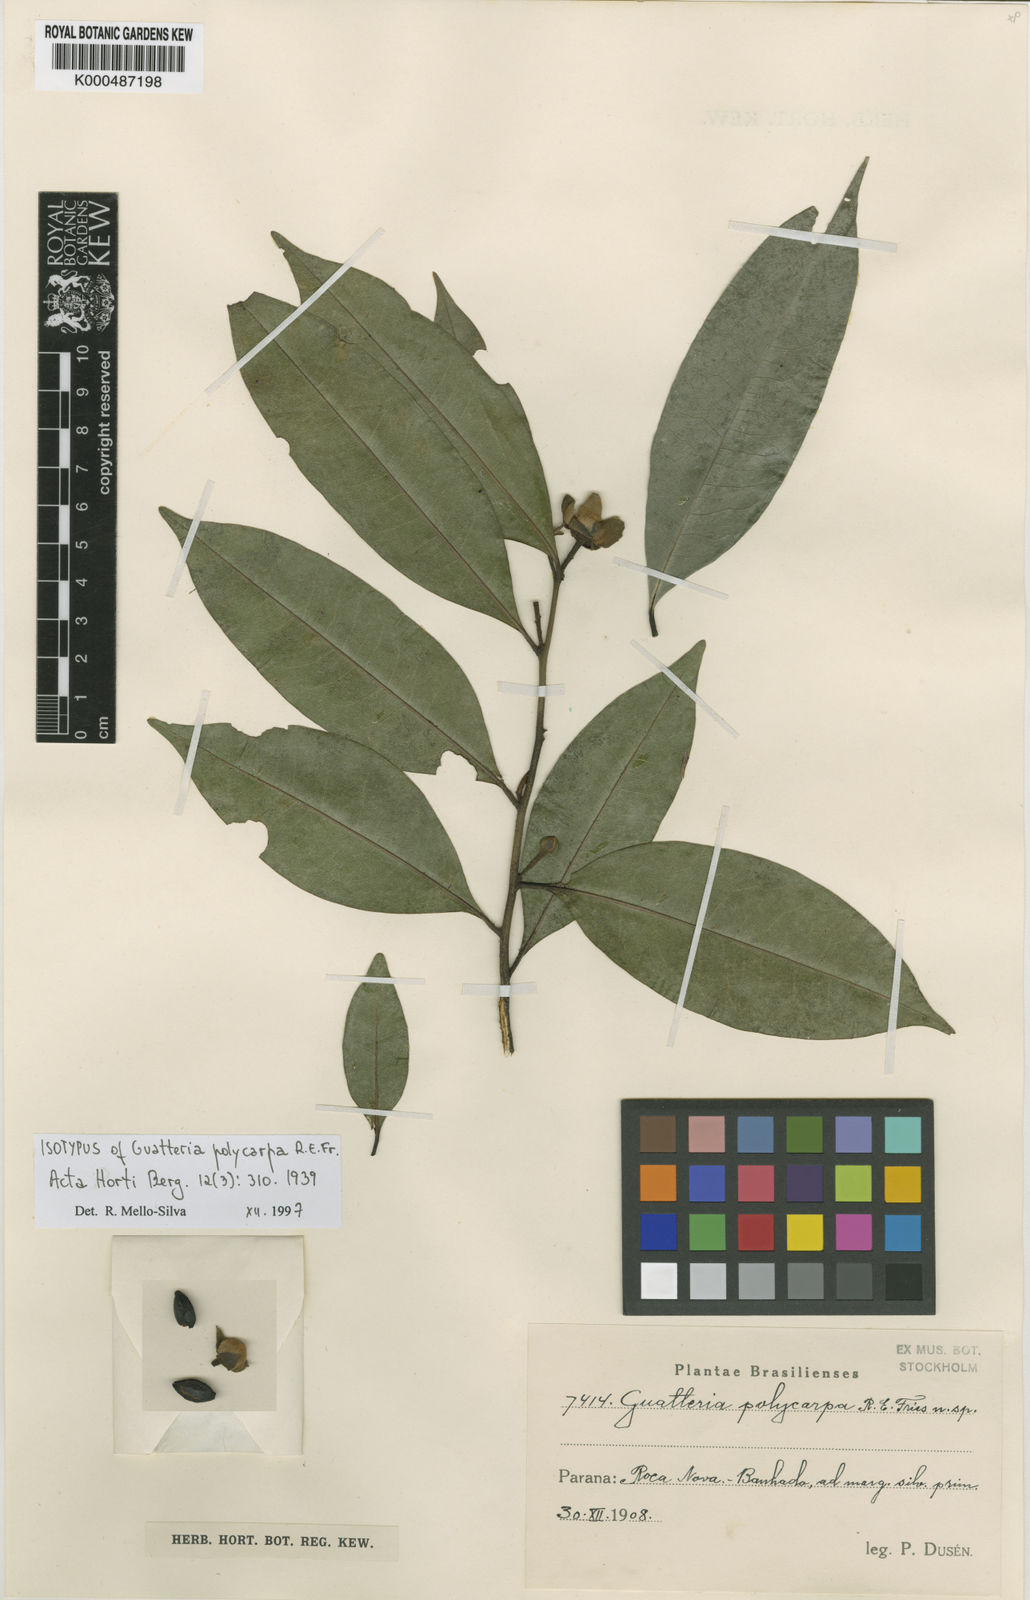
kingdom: Plantae
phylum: Tracheophyta
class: Magnoliopsida
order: Magnoliales
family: Annonaceae
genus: Guatteria
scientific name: Guatteria australis
